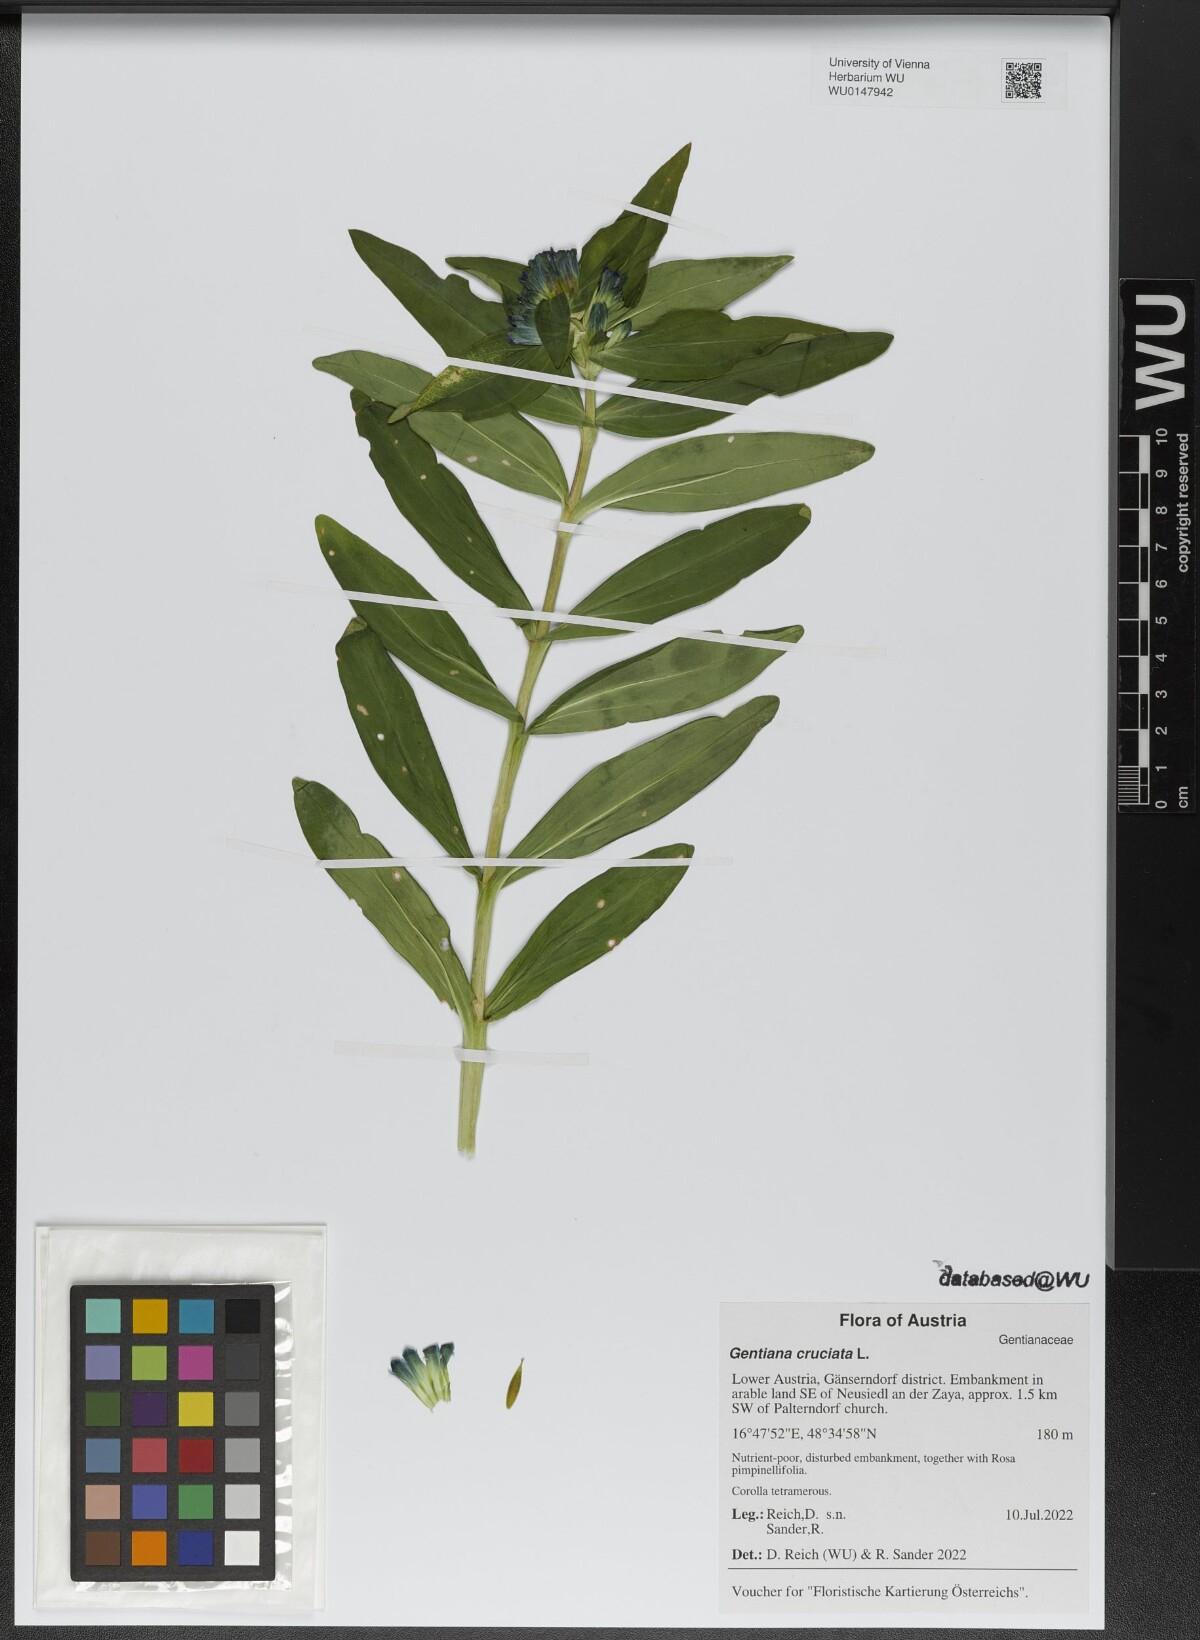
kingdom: Plantae
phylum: Tracheophyta
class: Magnoliopsida
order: Gentianales
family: Gentianaceae
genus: Gentiana
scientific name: Gentiana cruciata
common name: Cross gentian
